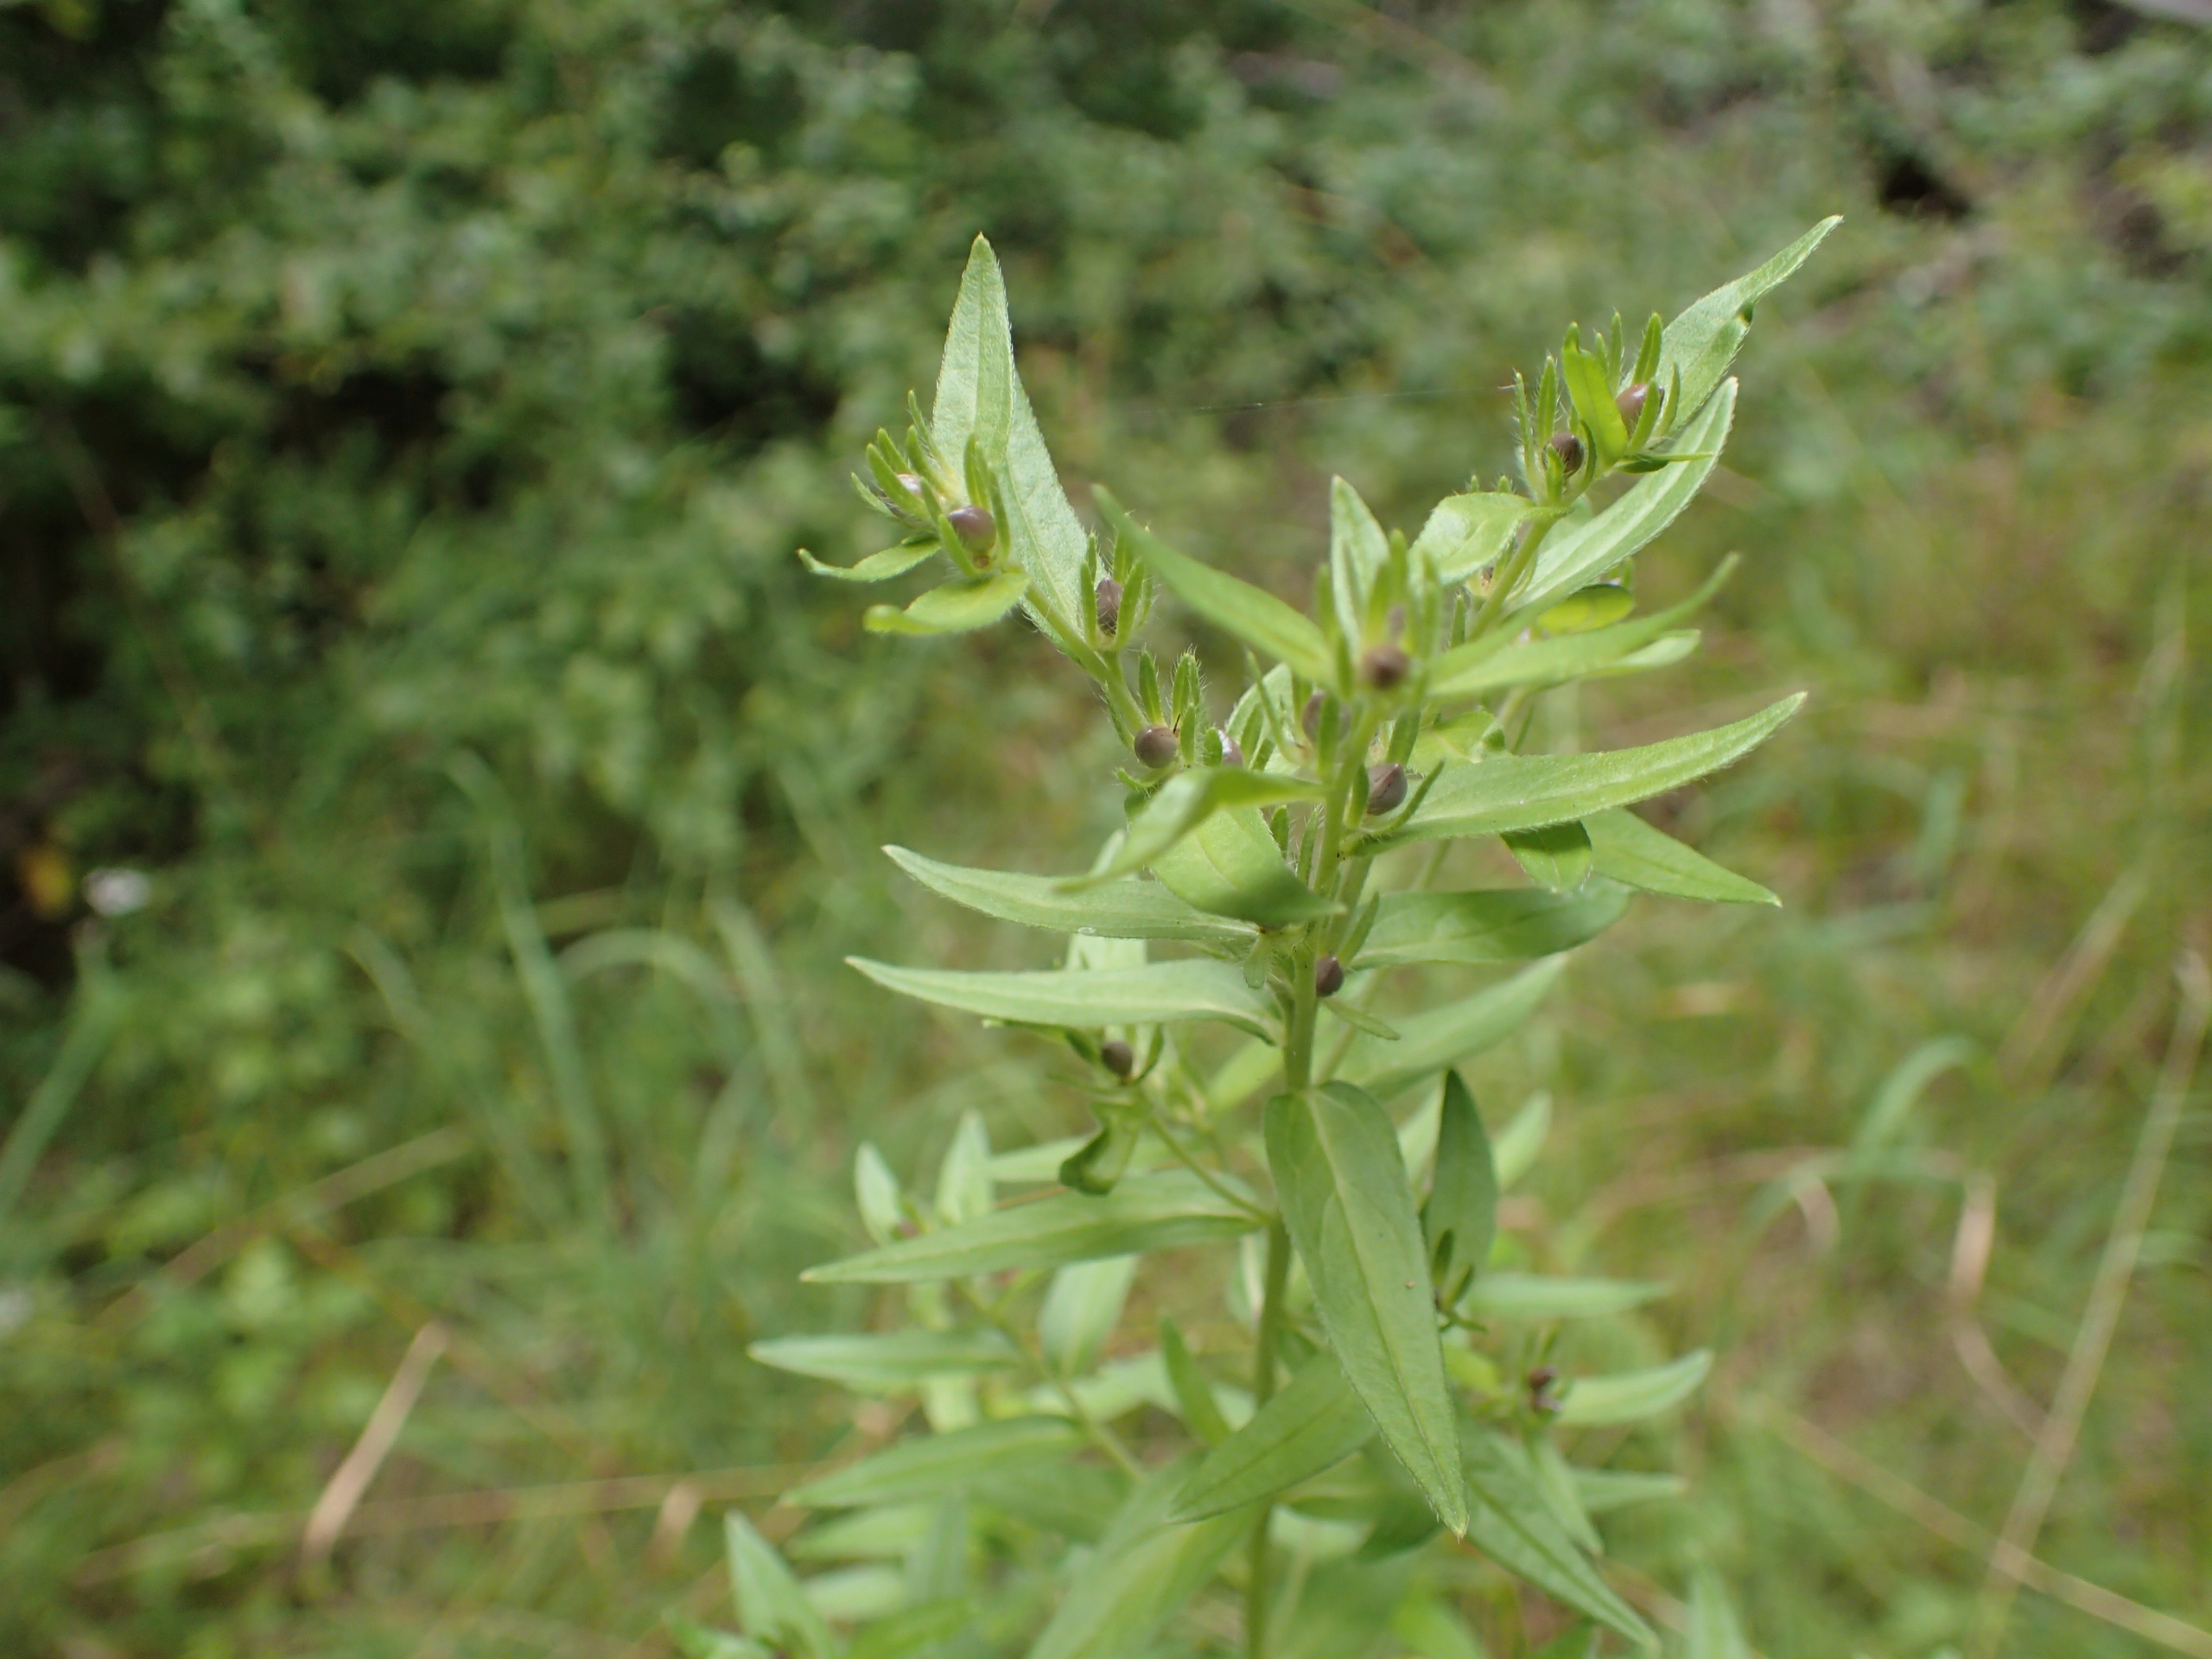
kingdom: Plantae
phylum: Tracheophyta
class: Magnoliopsida
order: Boraginales
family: Boraginaceae
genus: Lithospermum
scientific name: Lithospermum officinale
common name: Læge-stenfrø
